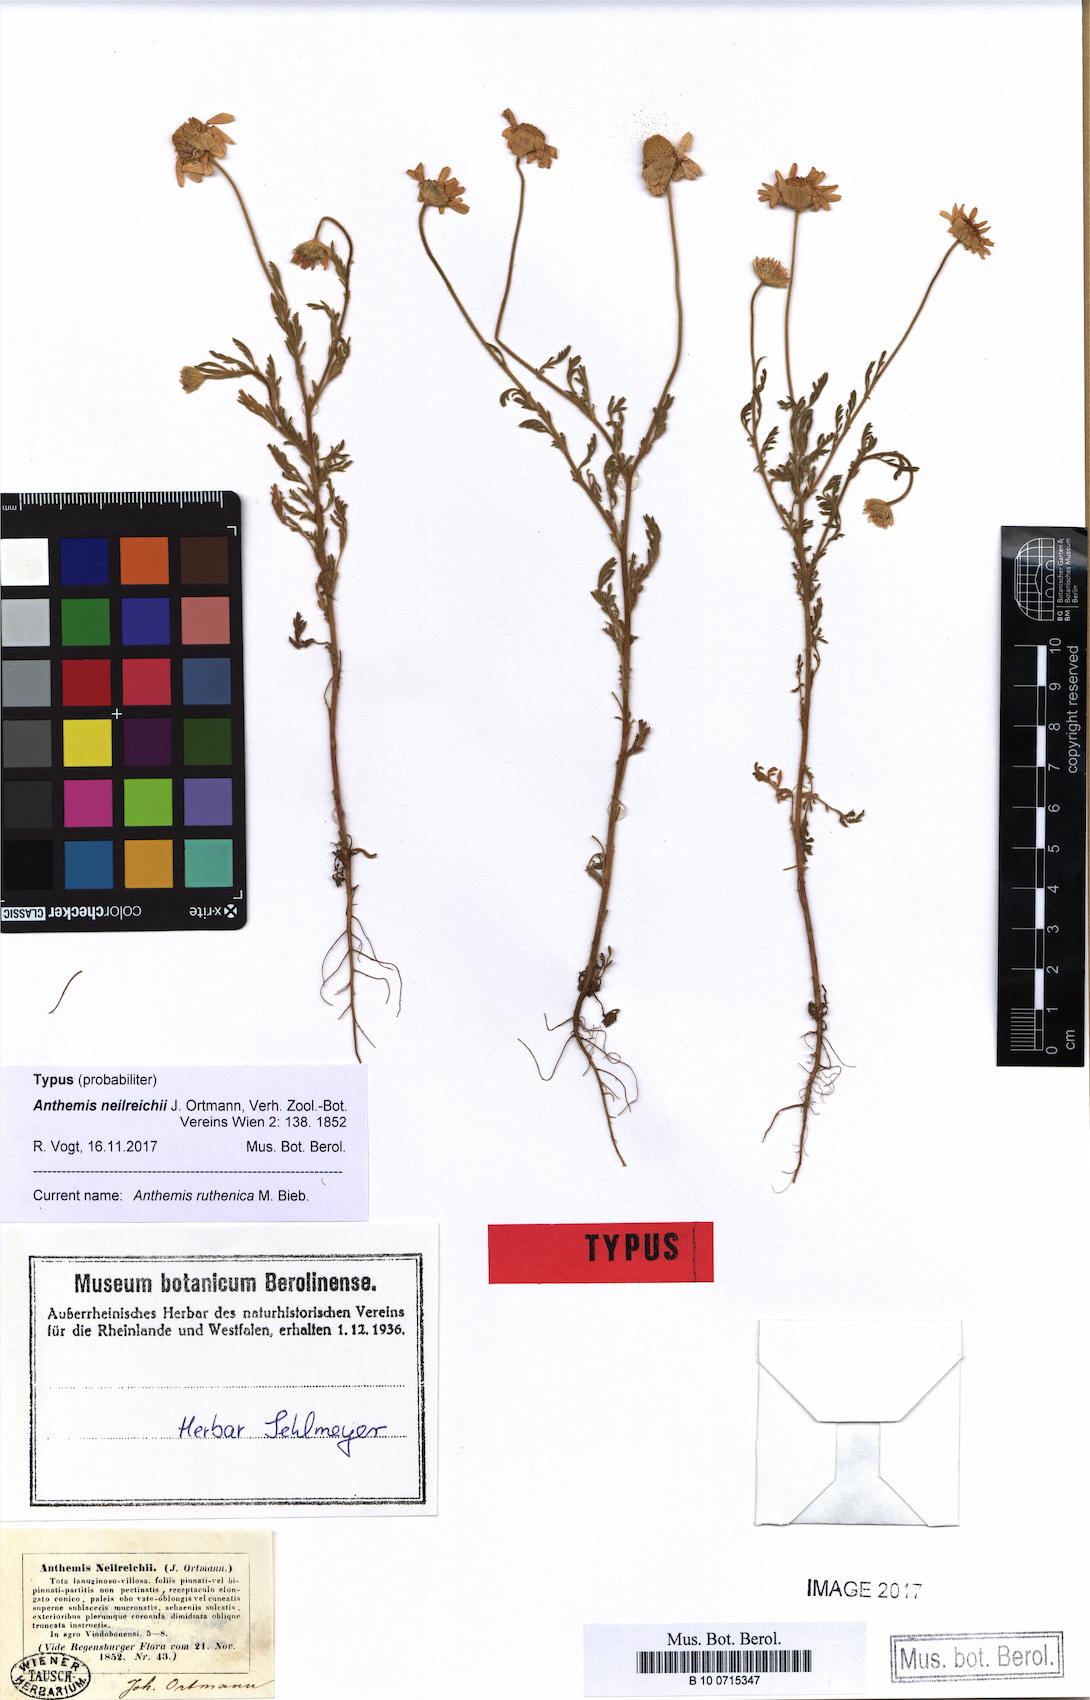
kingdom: Plantae
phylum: Tracheophyta
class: Magnoliopsida
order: Asterales
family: Asteraceae
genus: Anthemis
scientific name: Anthemis ruthenica
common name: Eastern chamomile
